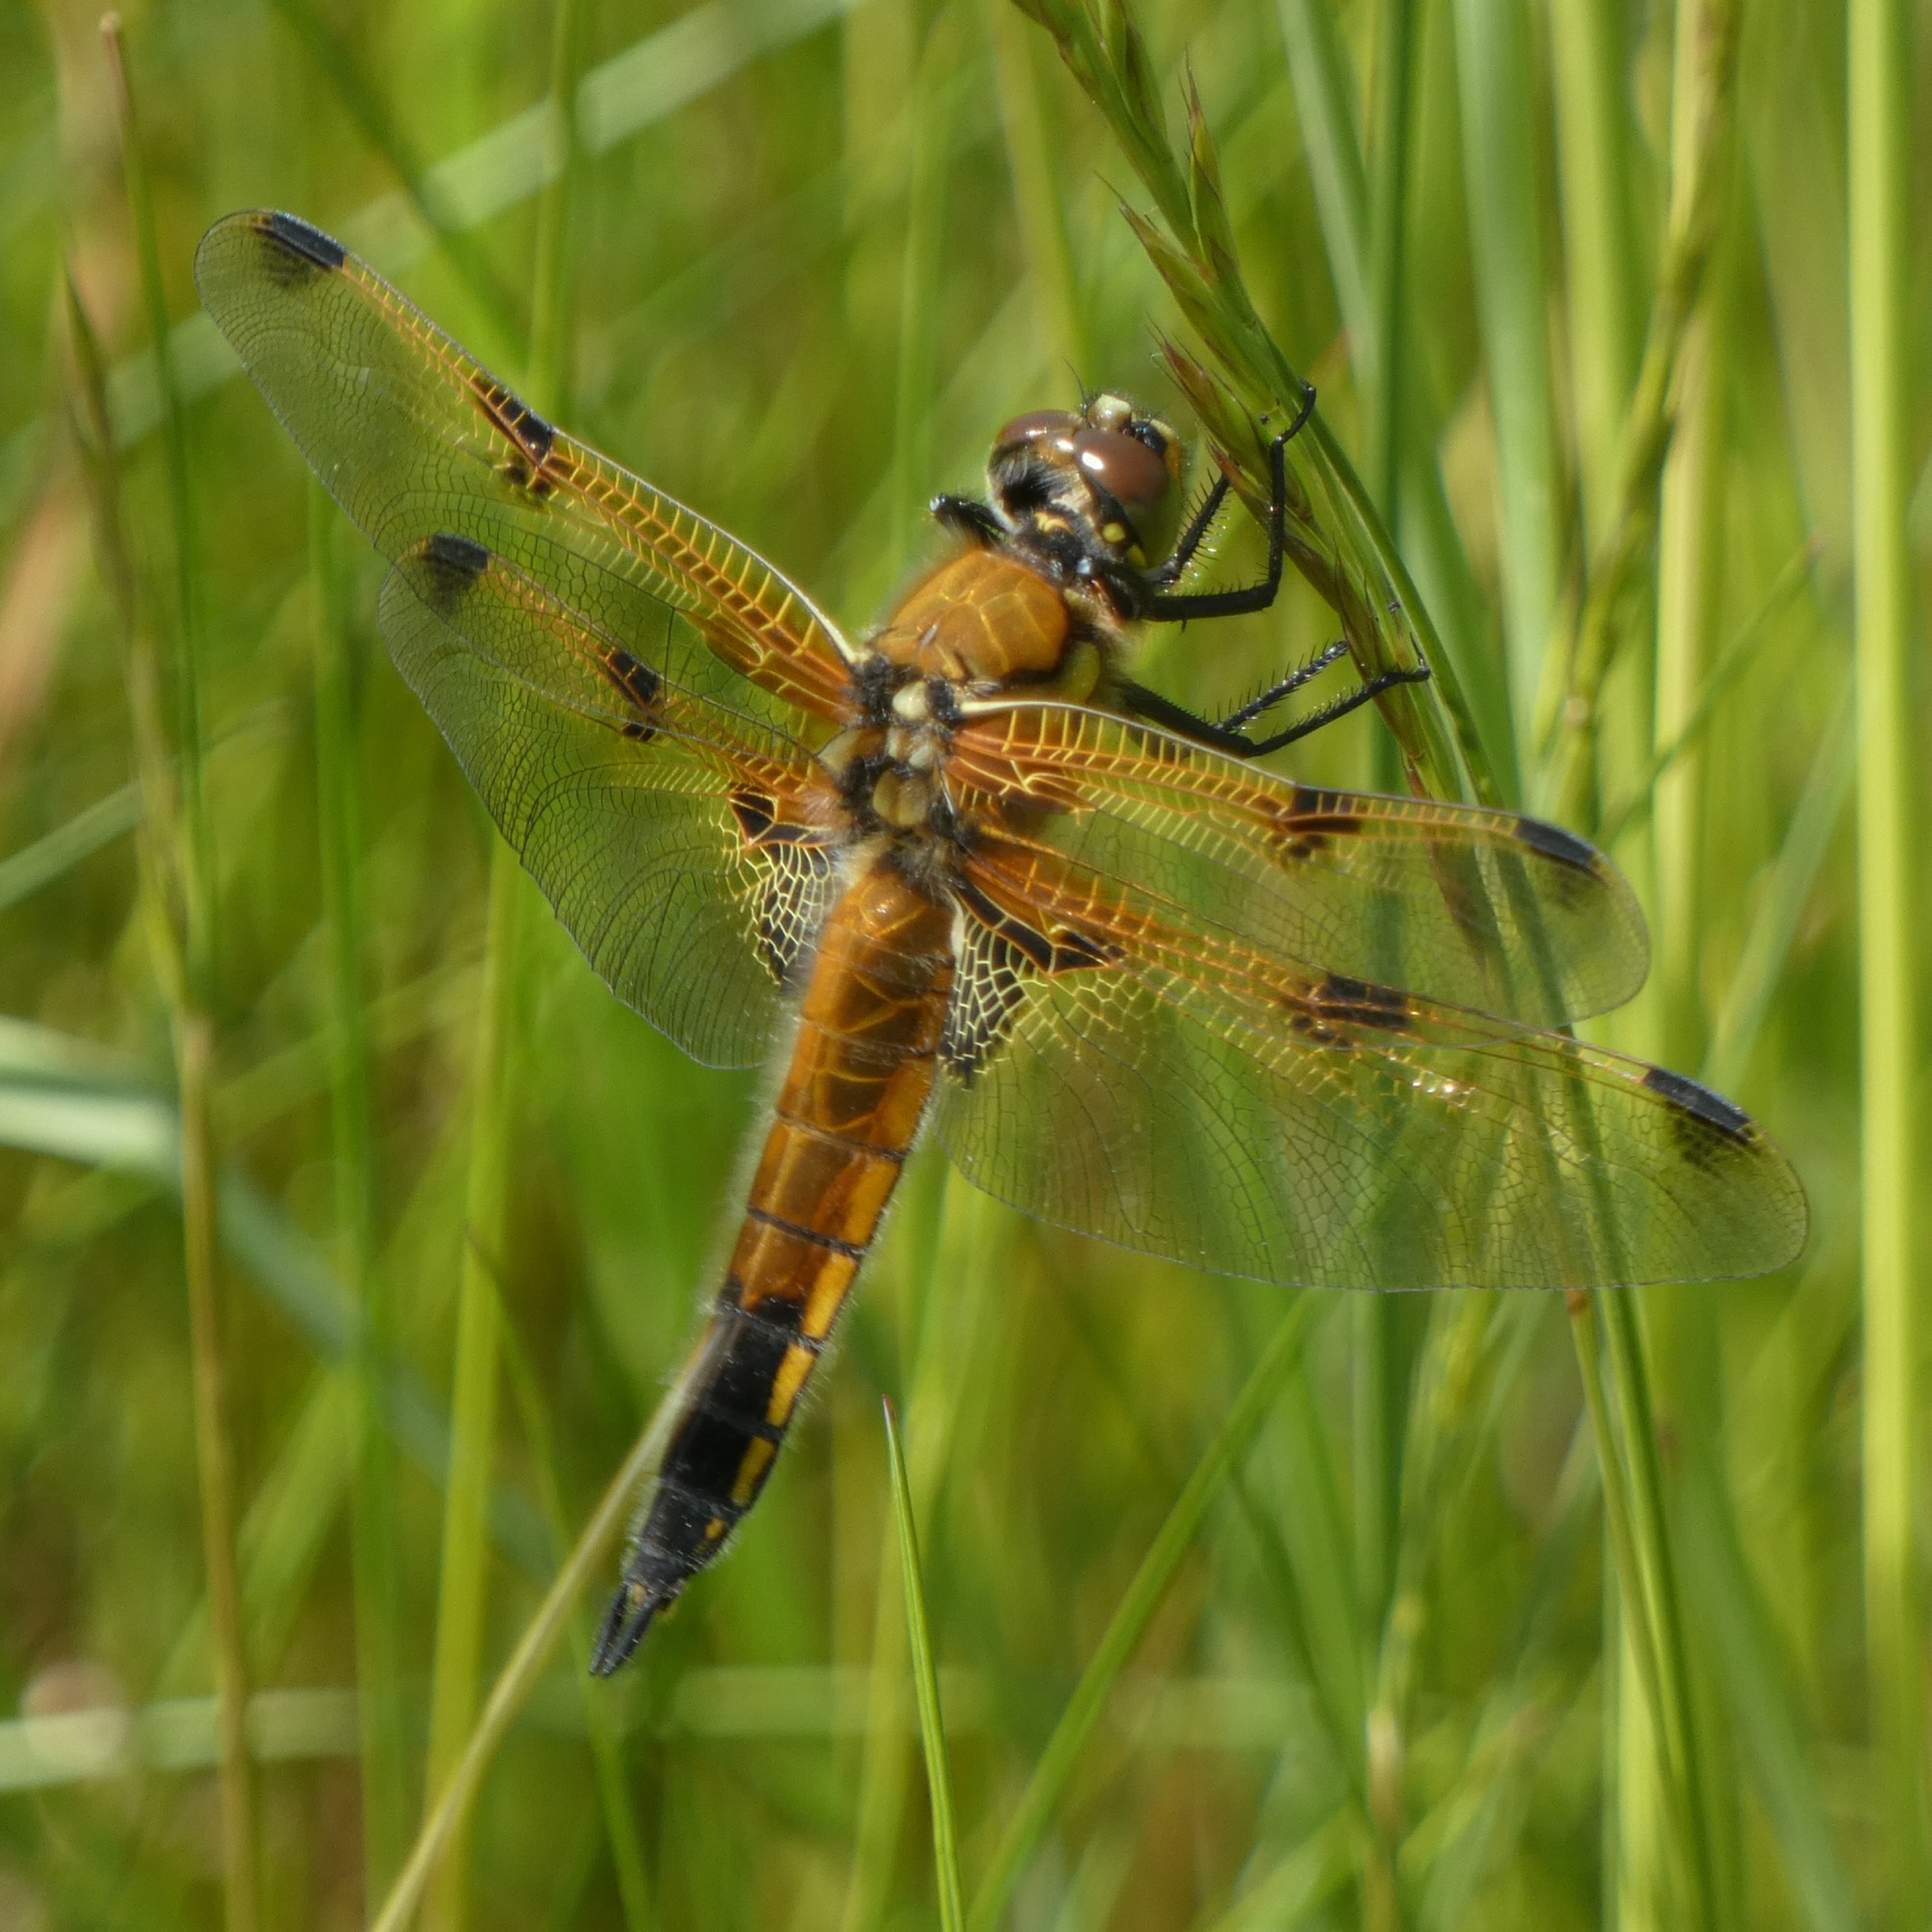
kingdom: Animalia
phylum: Arthropoda
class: Insecta
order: Odonata
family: Libellulidae
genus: Libellula
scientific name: Libellula quadrimaculata
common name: Fireplettet libel
